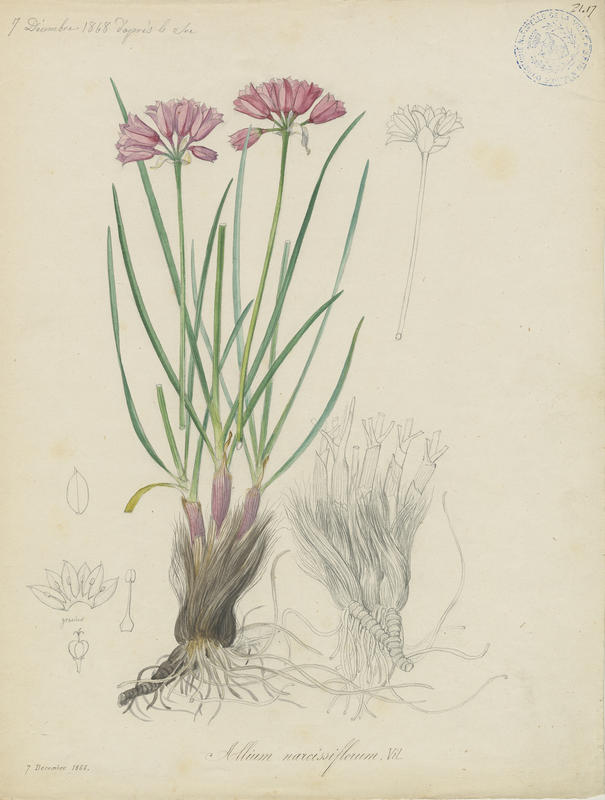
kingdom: Plantae
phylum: Tracheophyta
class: Liliopsida
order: Asparagales
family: Amaryllidaceae
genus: Allium
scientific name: Allium narcissiflorum
